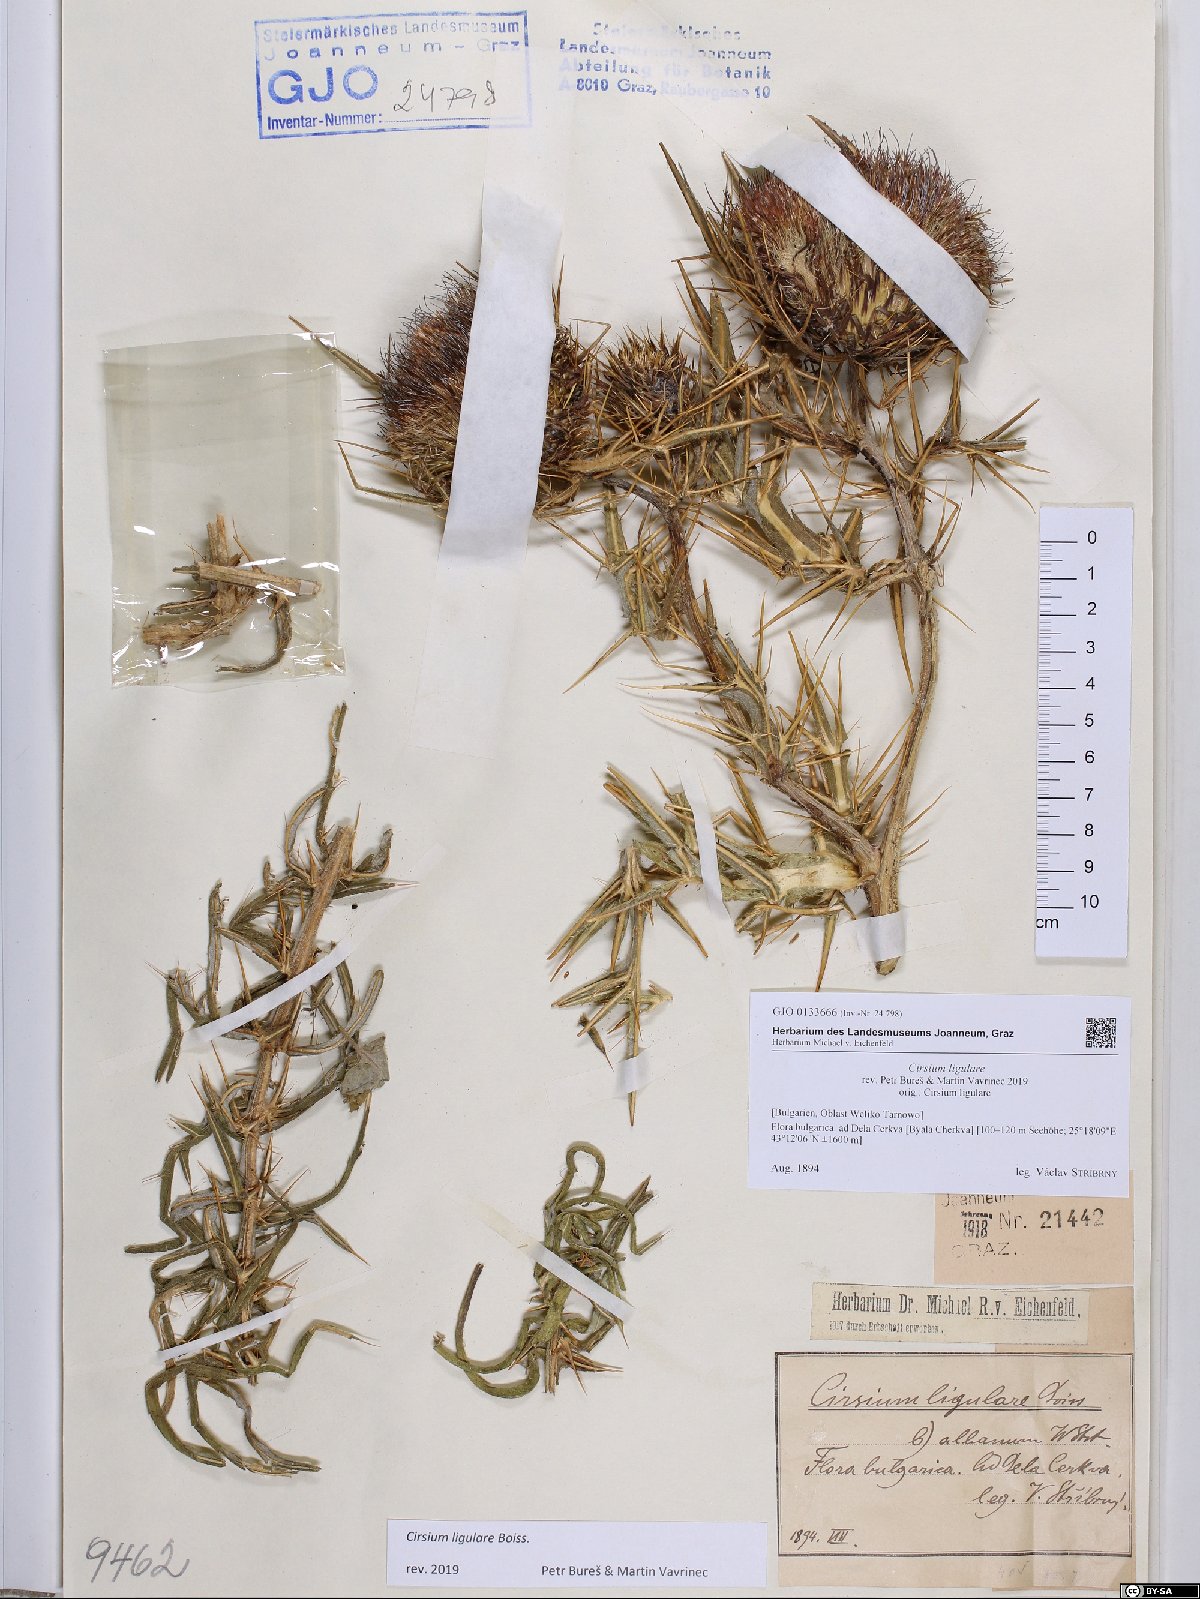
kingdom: Plantae
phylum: Tracheophyta
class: Magnoliopsida
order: Asterales
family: Asteraceae
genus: Lophiolepis
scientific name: Lophiolepis ligularis
